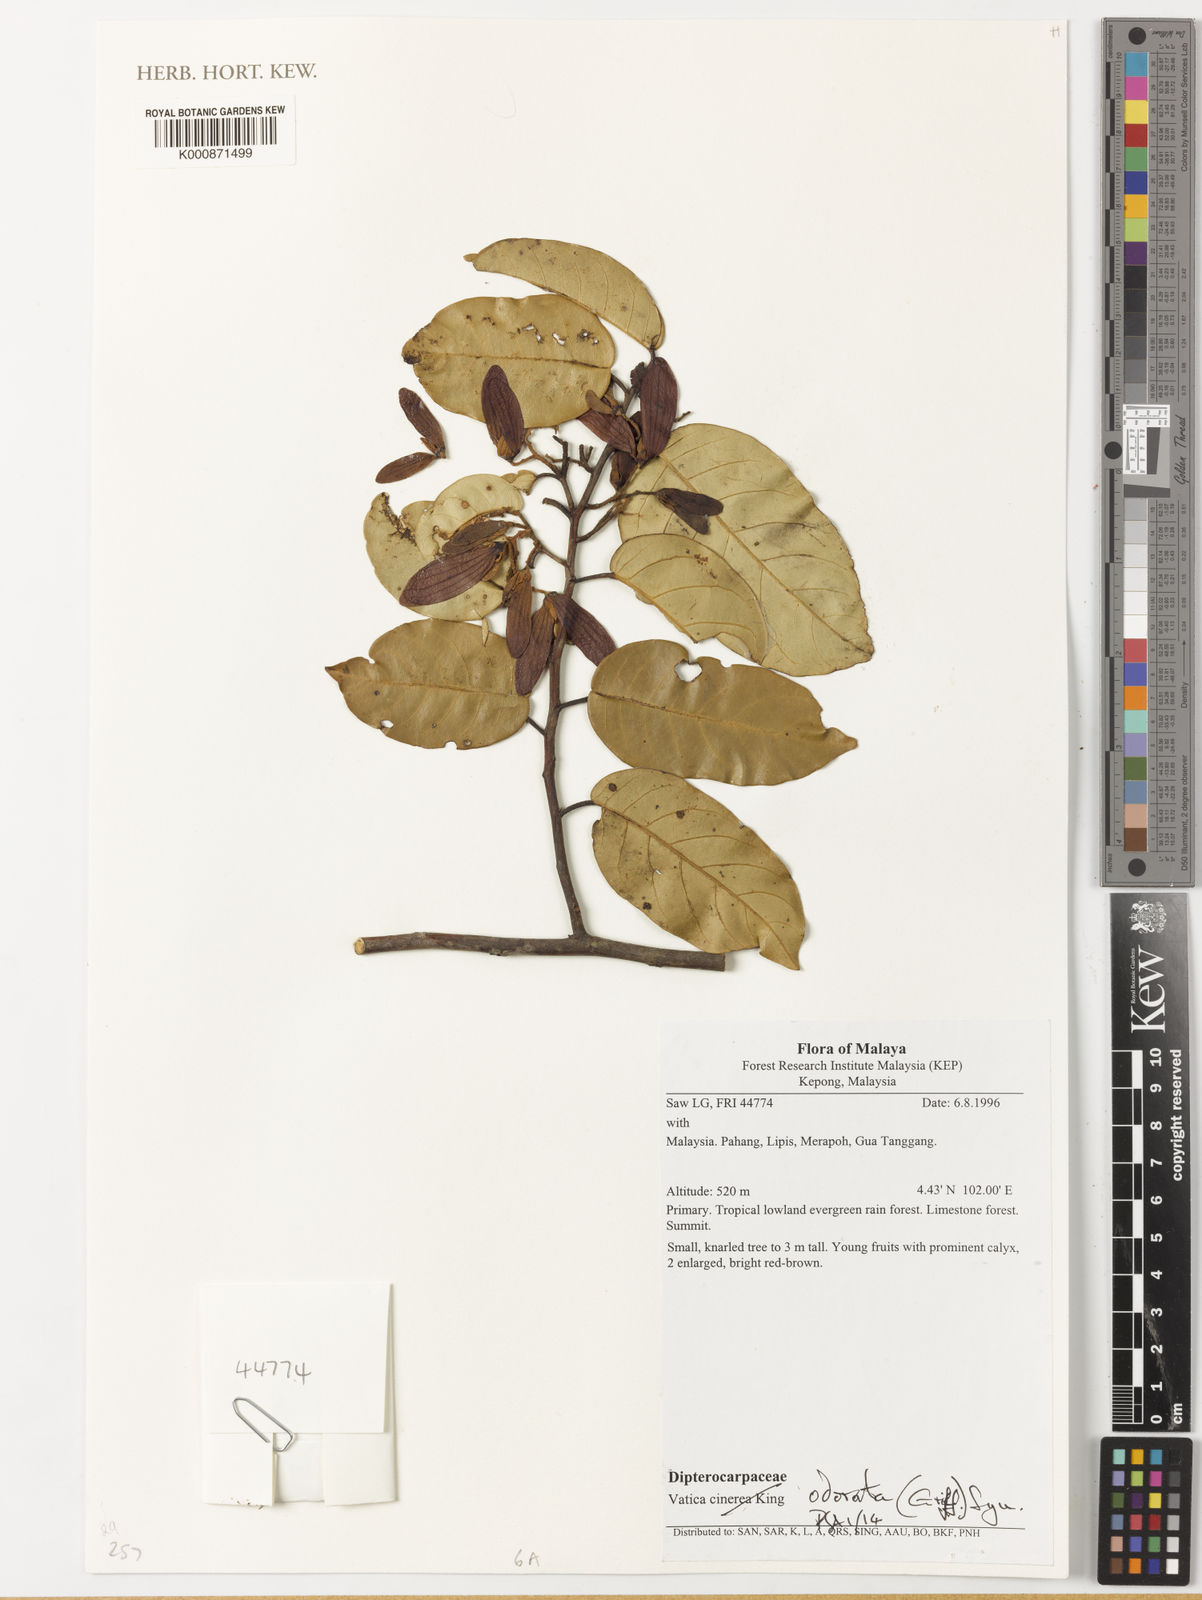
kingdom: Plantae
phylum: Tracheophyta
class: Magnoliopsida
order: Malvales
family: Dipterocarpaceae
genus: Vatica
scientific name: Vatica odorata
